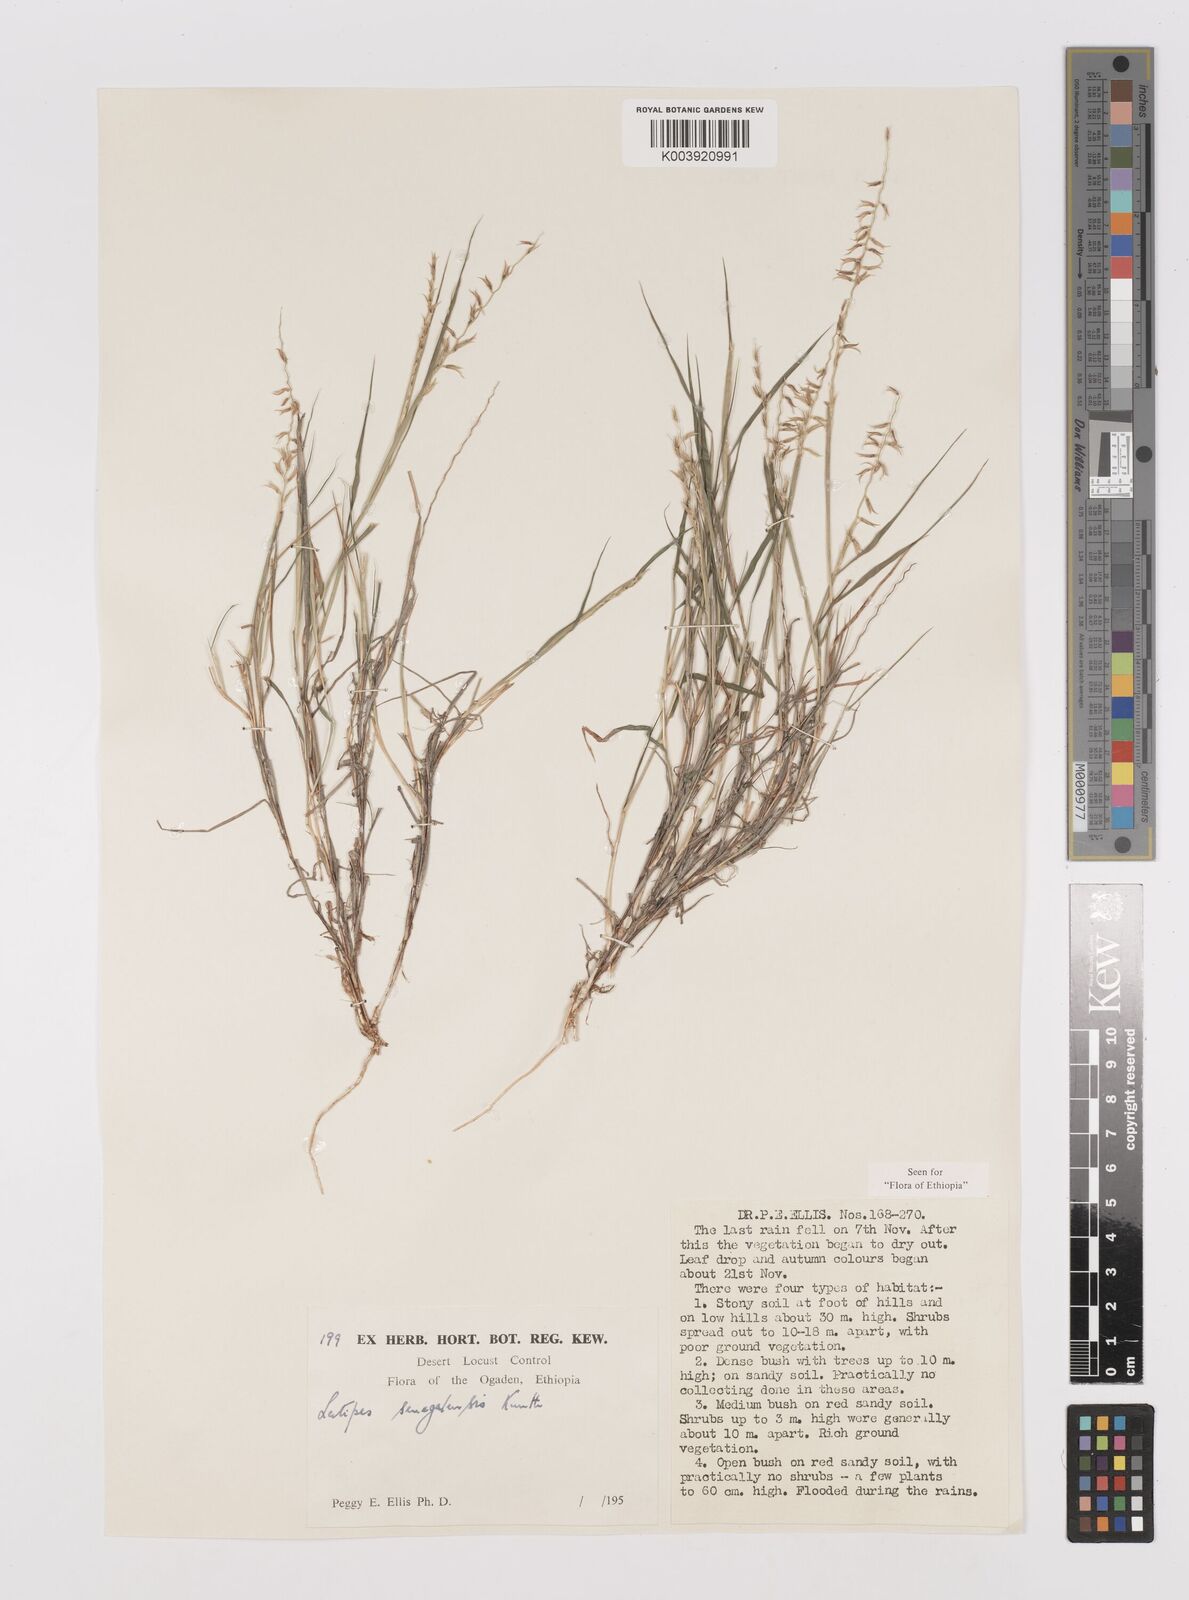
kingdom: Plantae
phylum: Tracheophyta
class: Liliopsida
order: Poales
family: Poaceae
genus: Leptothrium
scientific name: Leptothrium senegalense
